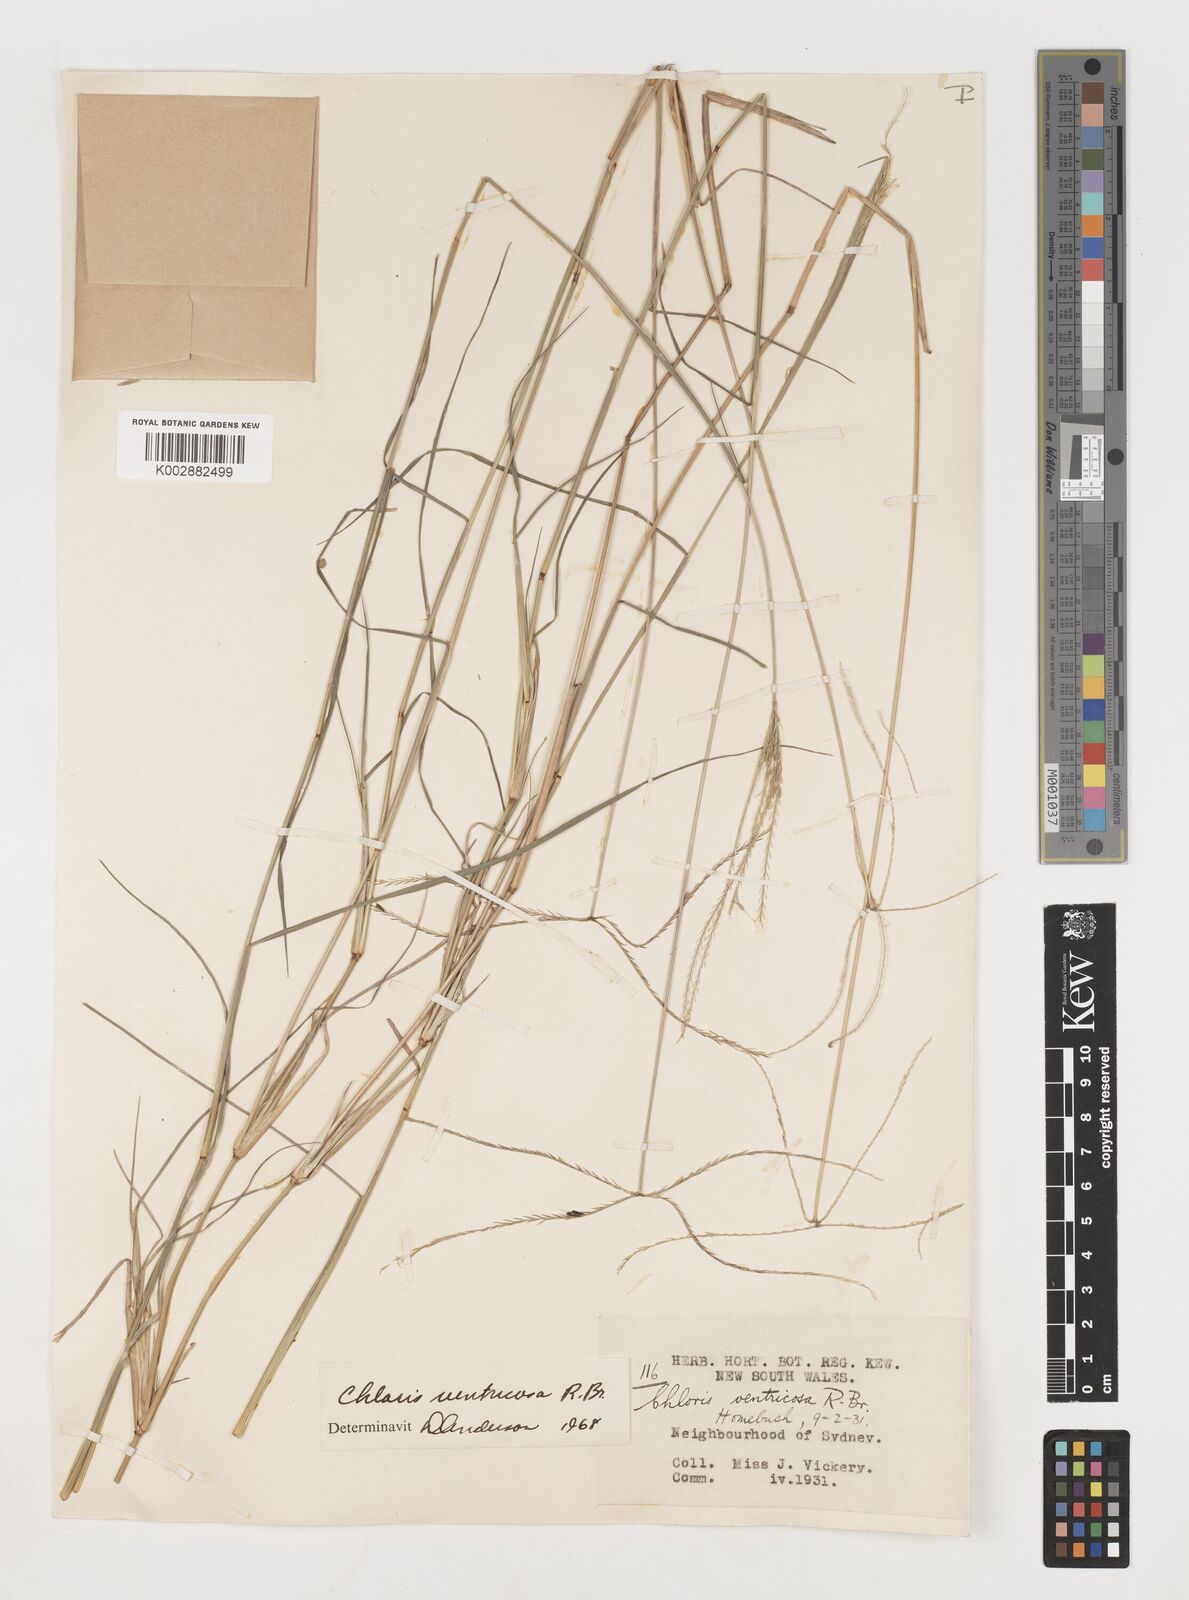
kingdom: Plantae
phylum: Tracheophyta
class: Liliopsida
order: Poales
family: Poaceae
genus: Chloris
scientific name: Chloris ventricosa
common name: Australian windmill grass
